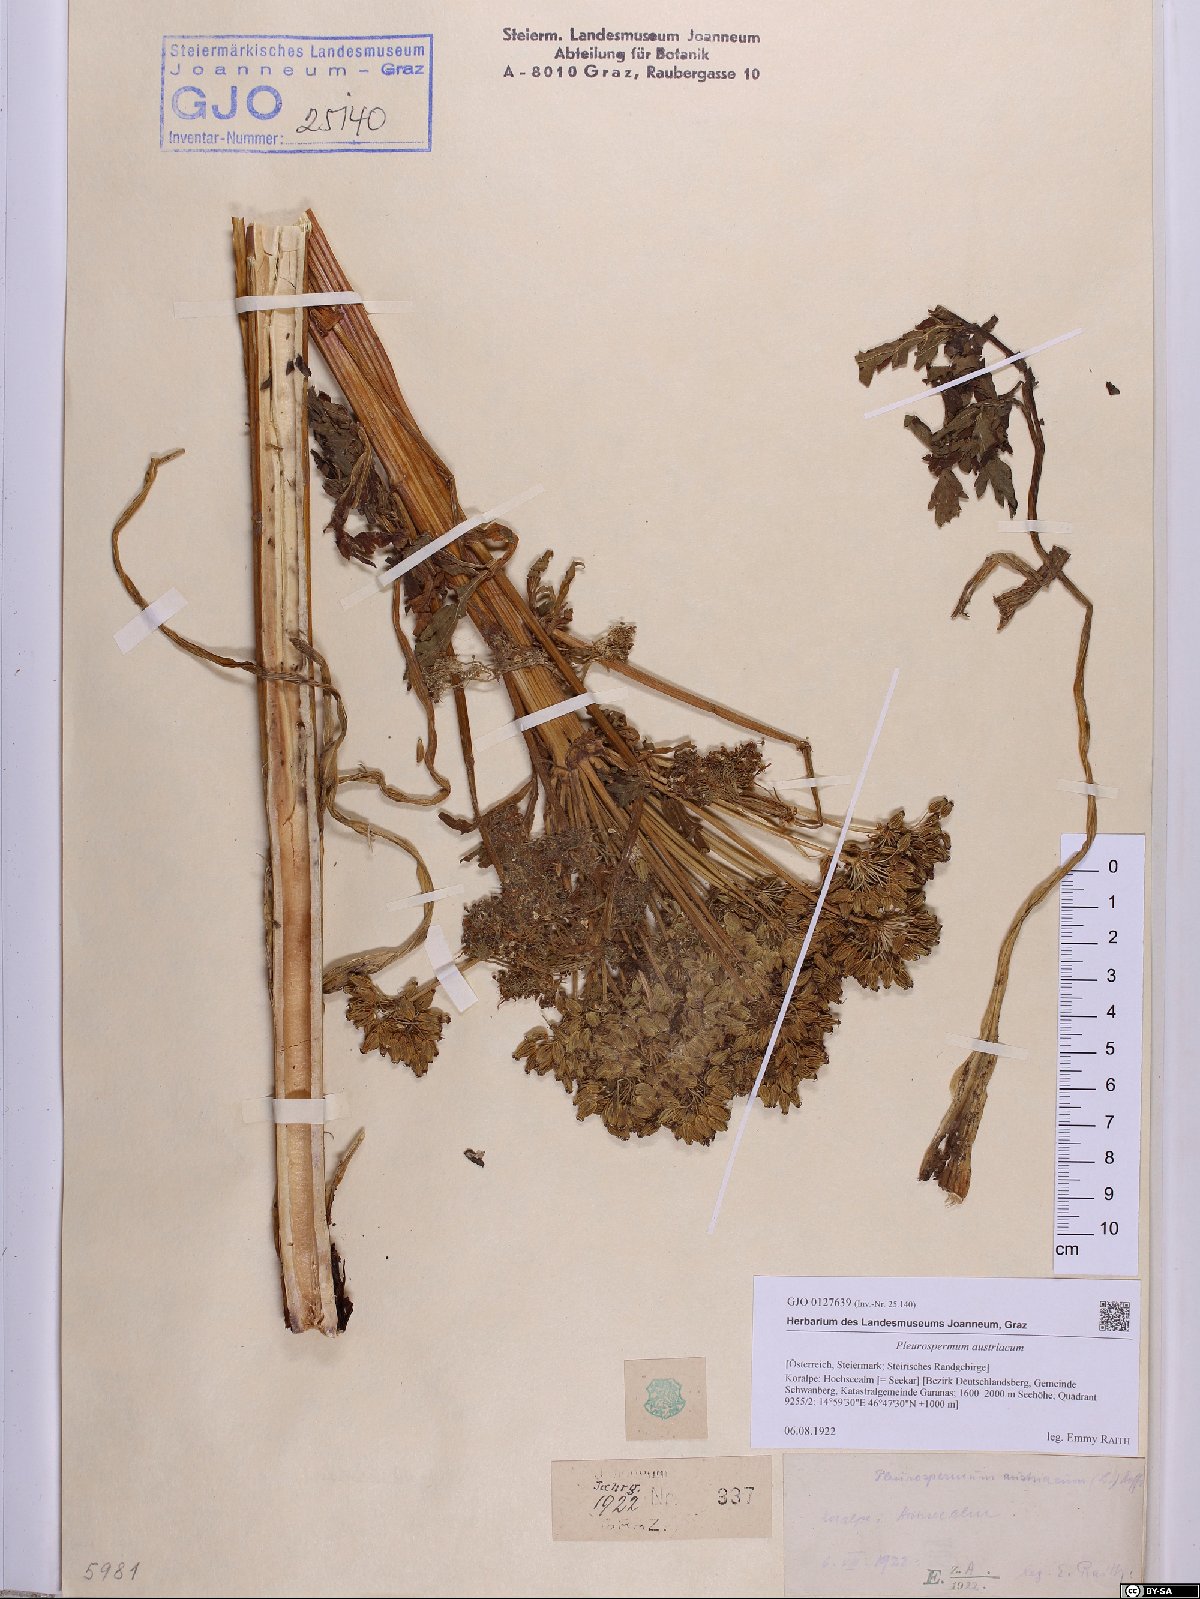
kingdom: Plantae
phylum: Tracheophyta
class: Magnoliopsida
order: Apiales
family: Apiaceae
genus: Pleurospermum
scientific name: Pleurospermum austriacum
